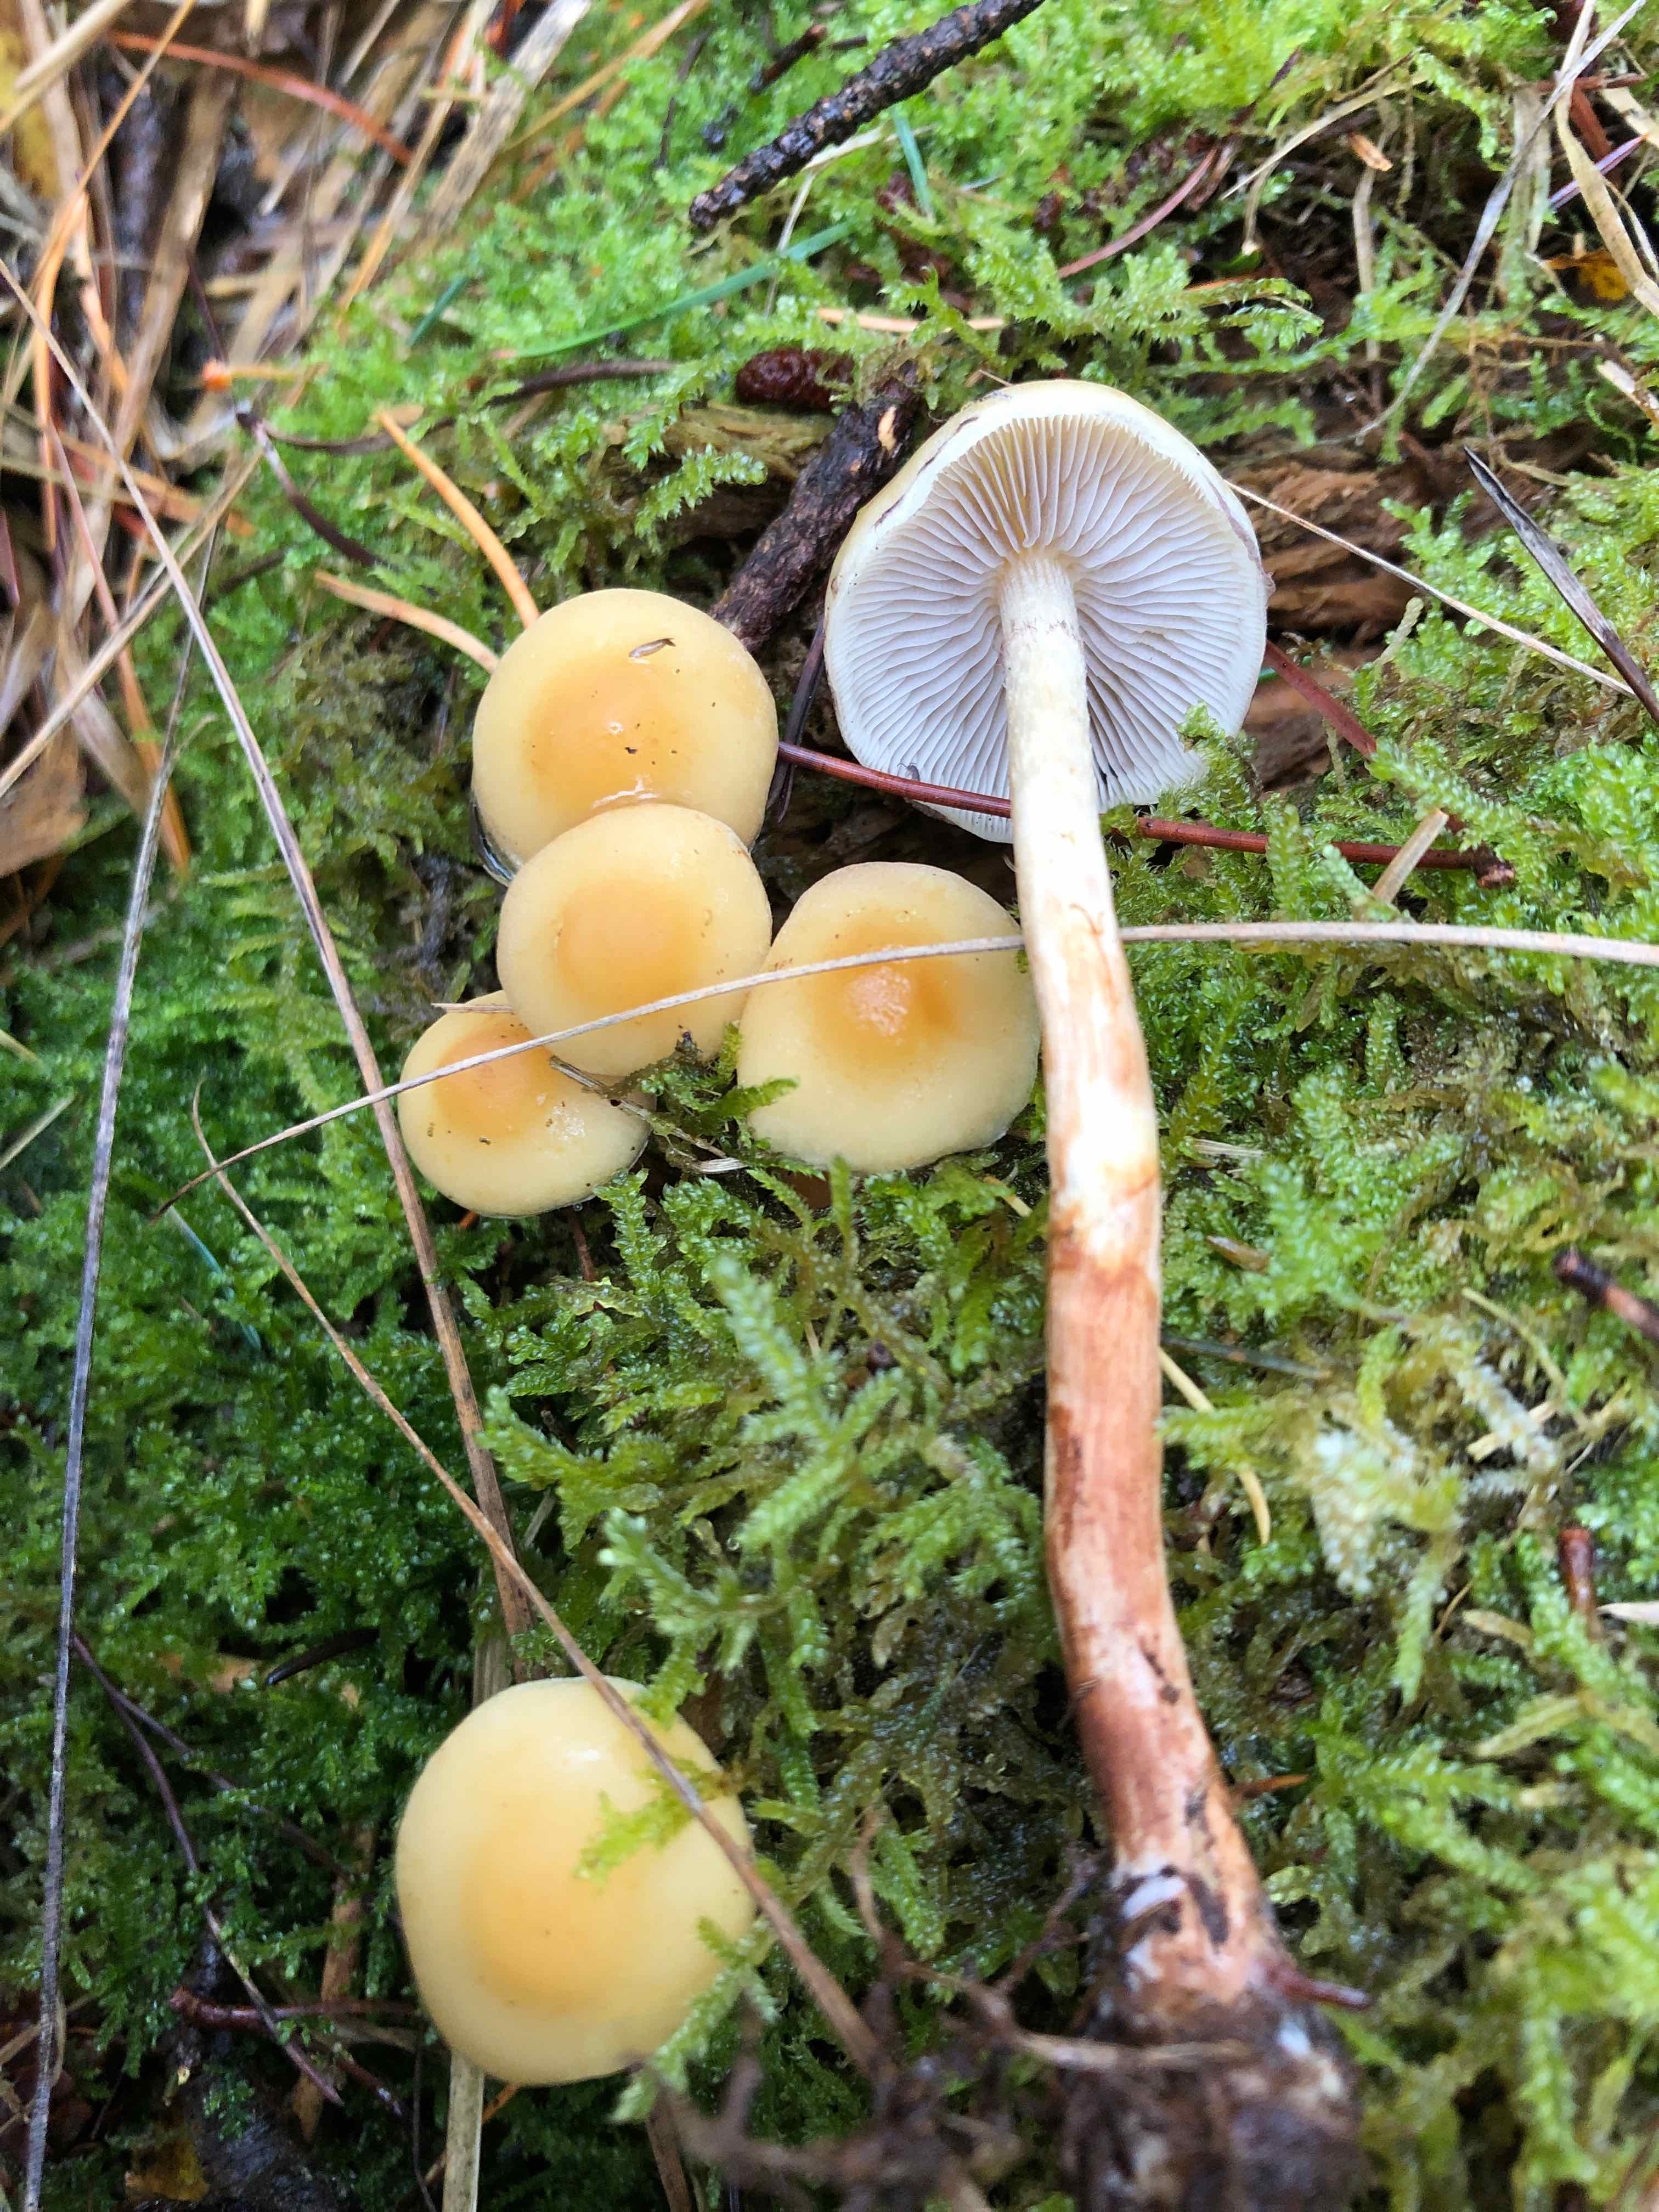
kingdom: Fungi
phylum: Basidiomycota
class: Agaricomycetes
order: Agaricales
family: Strophariaceae
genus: Hypholoma
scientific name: Hypholoma capnoides
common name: gran-svovlhat
